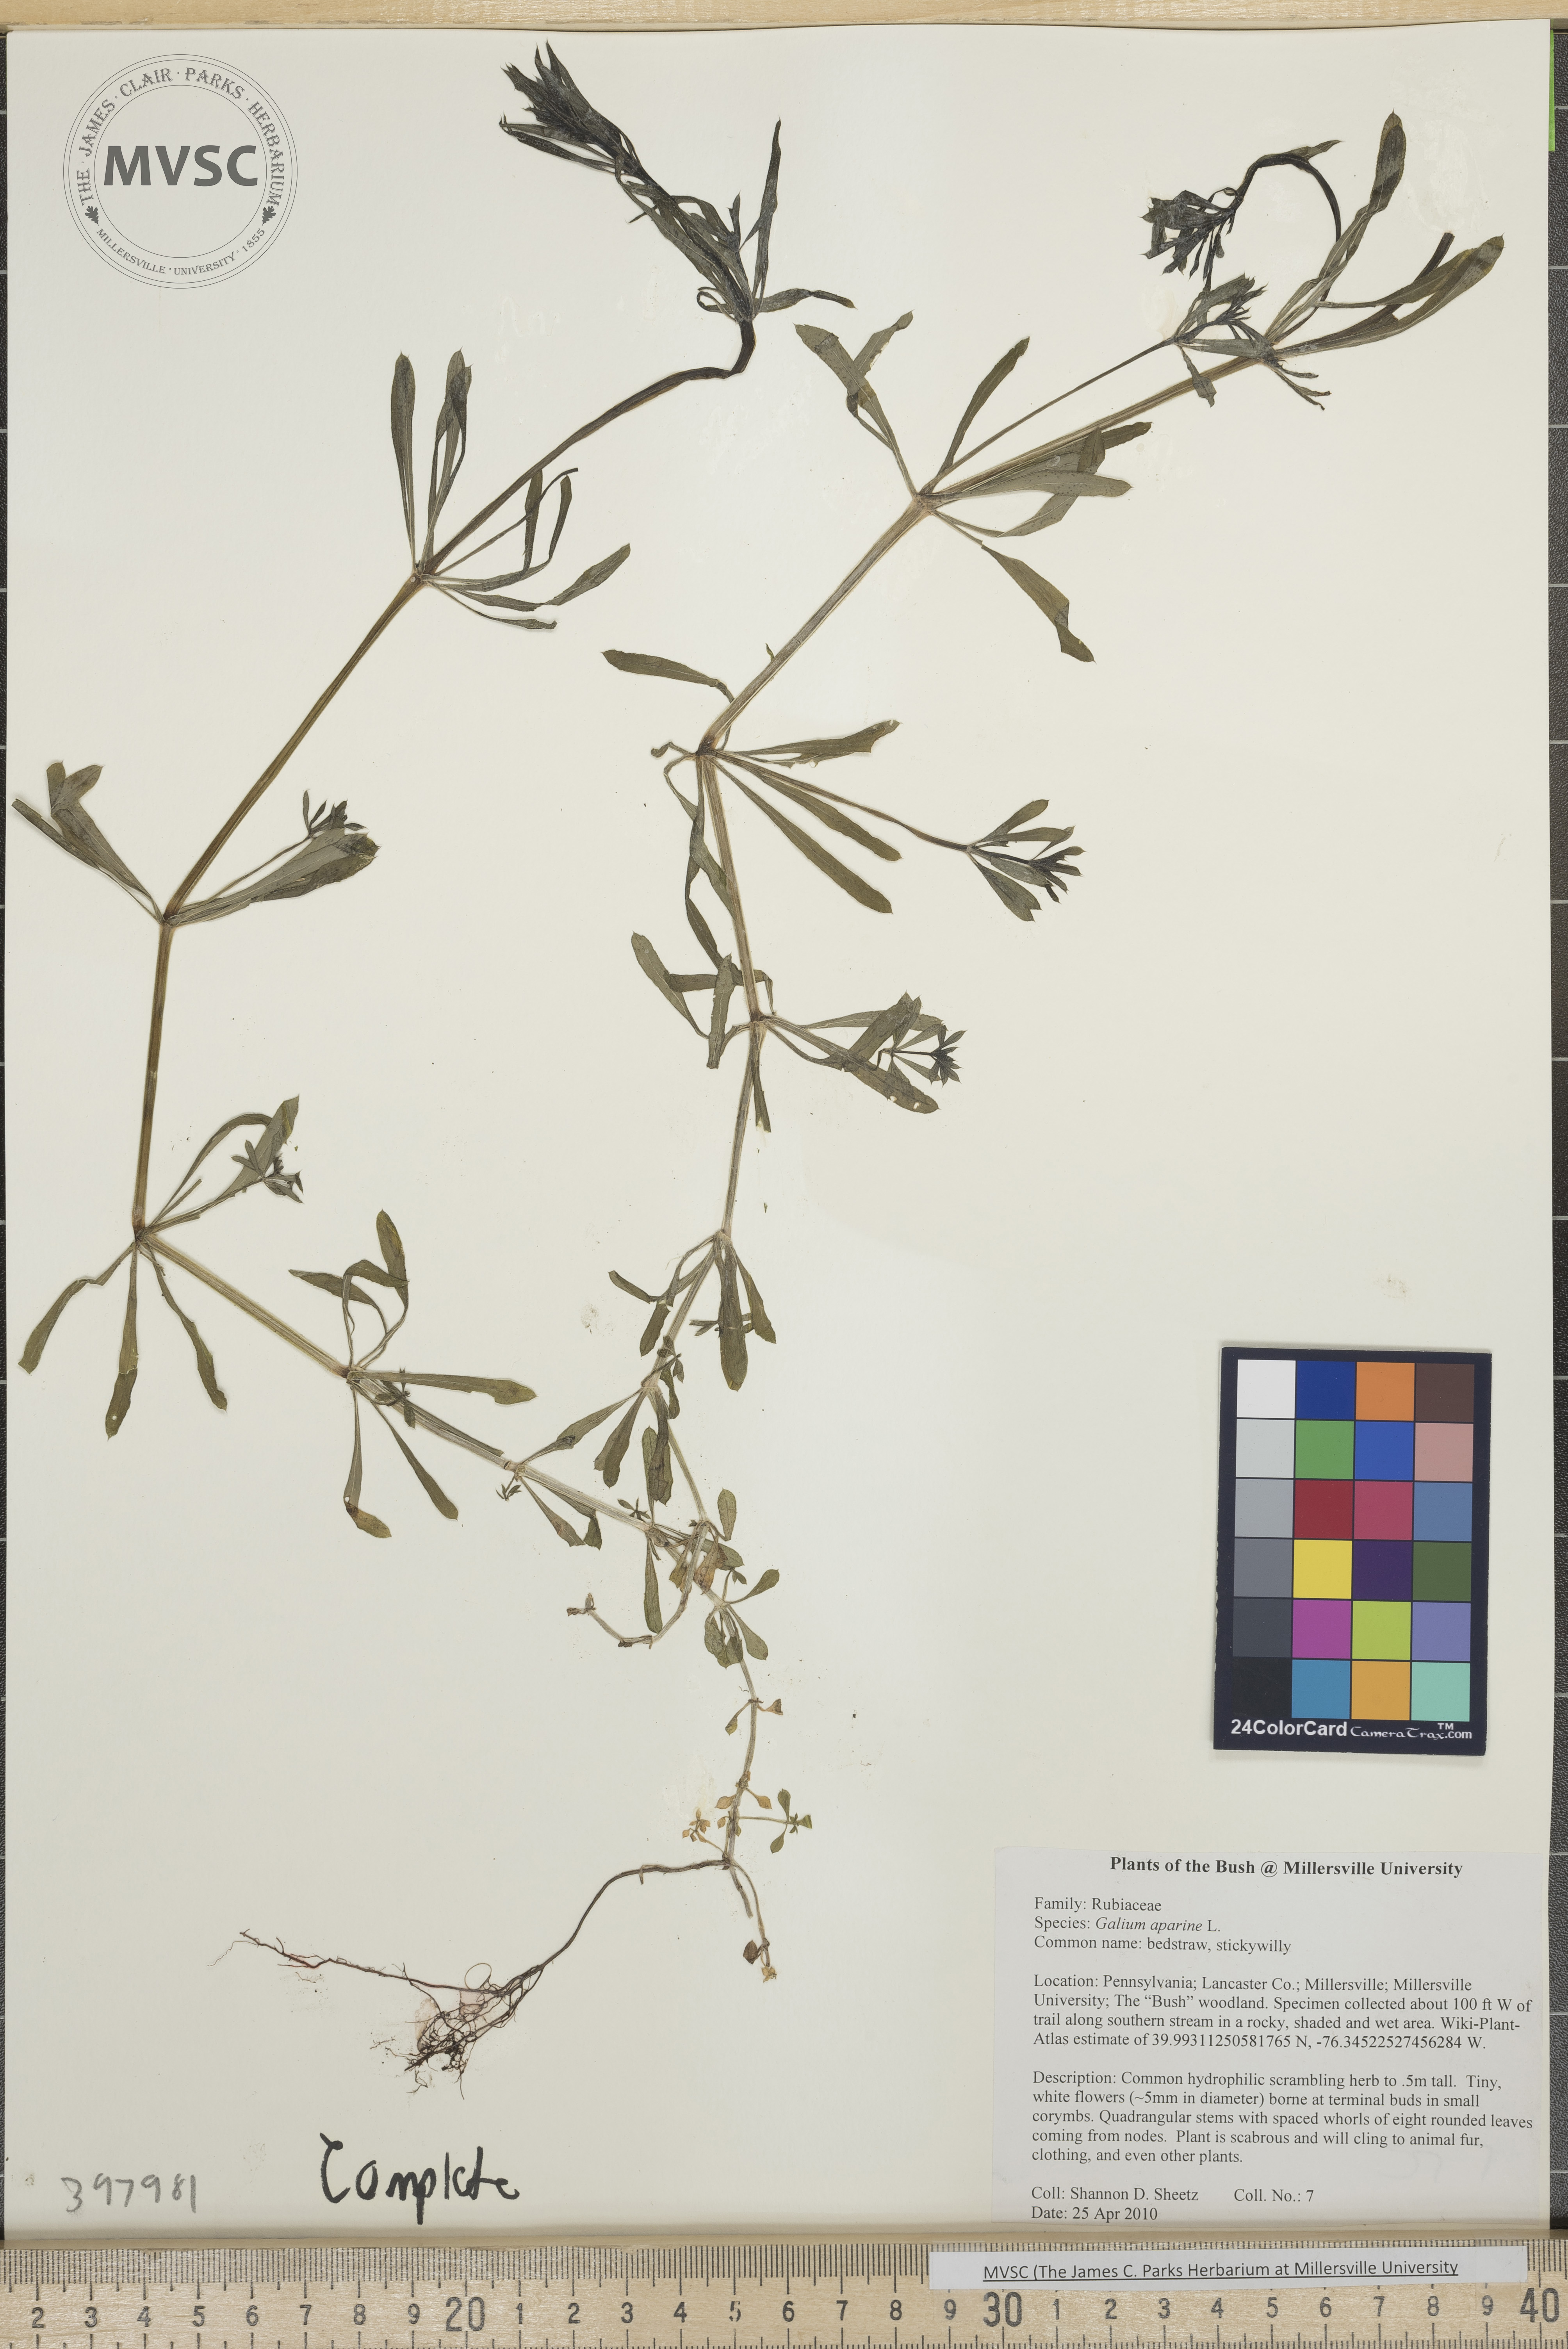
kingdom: Plantae
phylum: Tracheophyta
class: Magnoliopsida
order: Gentianales
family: Rubiaceae
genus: Galium
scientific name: Galium aparine
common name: Bedstraw
